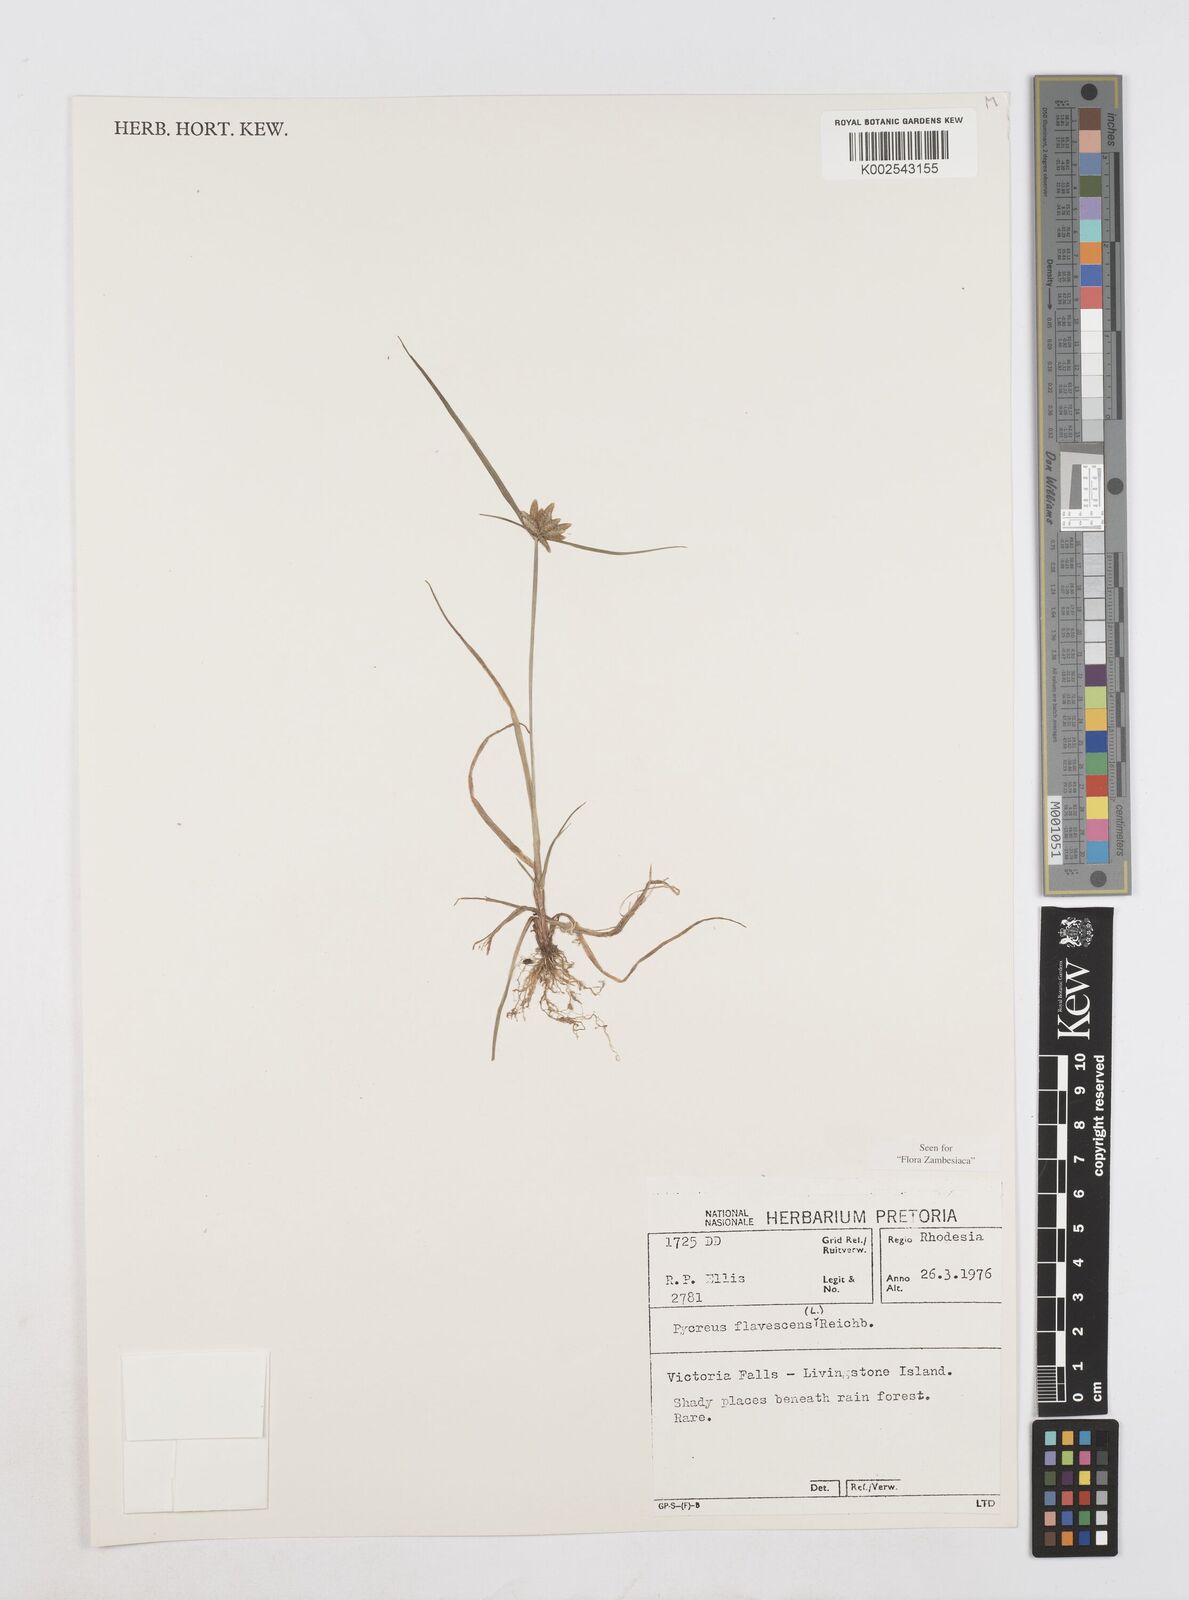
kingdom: Plantae
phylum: Tracheophyta
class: Liliopsida
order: Poales
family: Cyperaceae
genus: Cyperus
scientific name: Cyperus flavescens
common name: Yellow galingale
